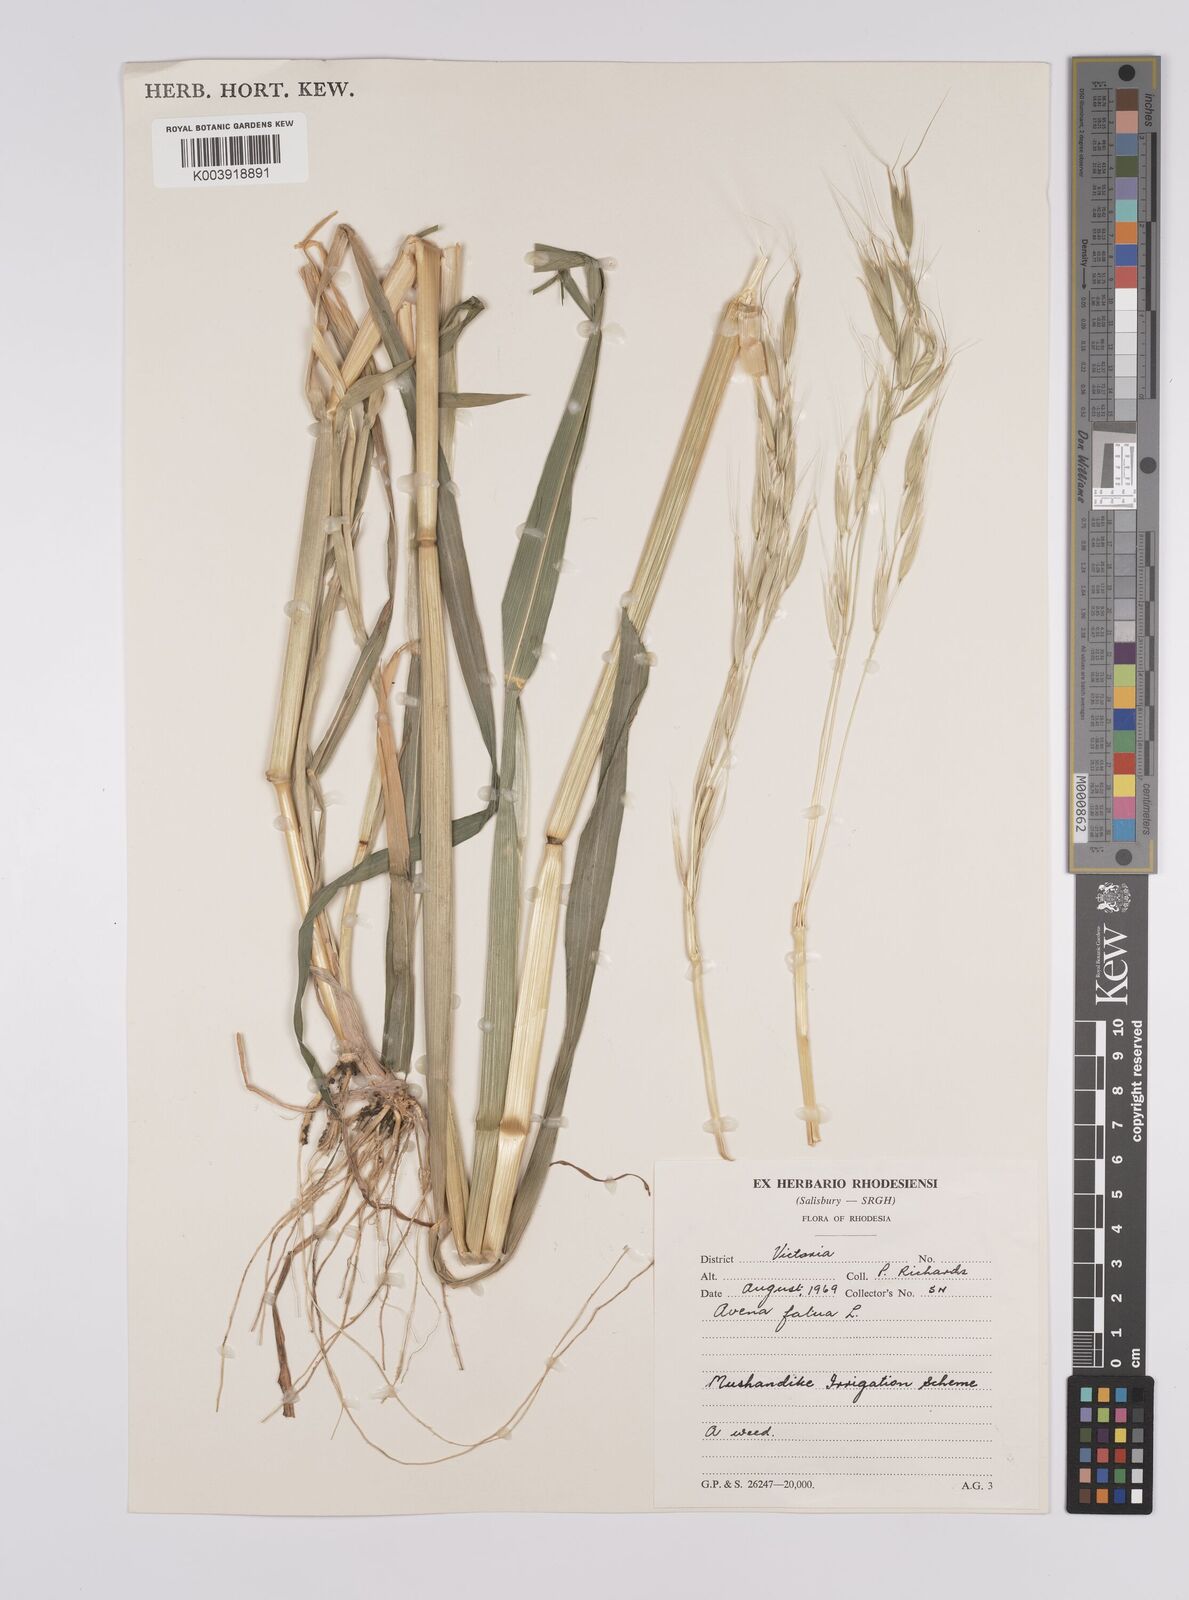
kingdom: Plantae
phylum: Tracheophyta
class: Liliopsida
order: Poales
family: Poaceae
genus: Avena
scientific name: Avena fatua
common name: Wild oat
